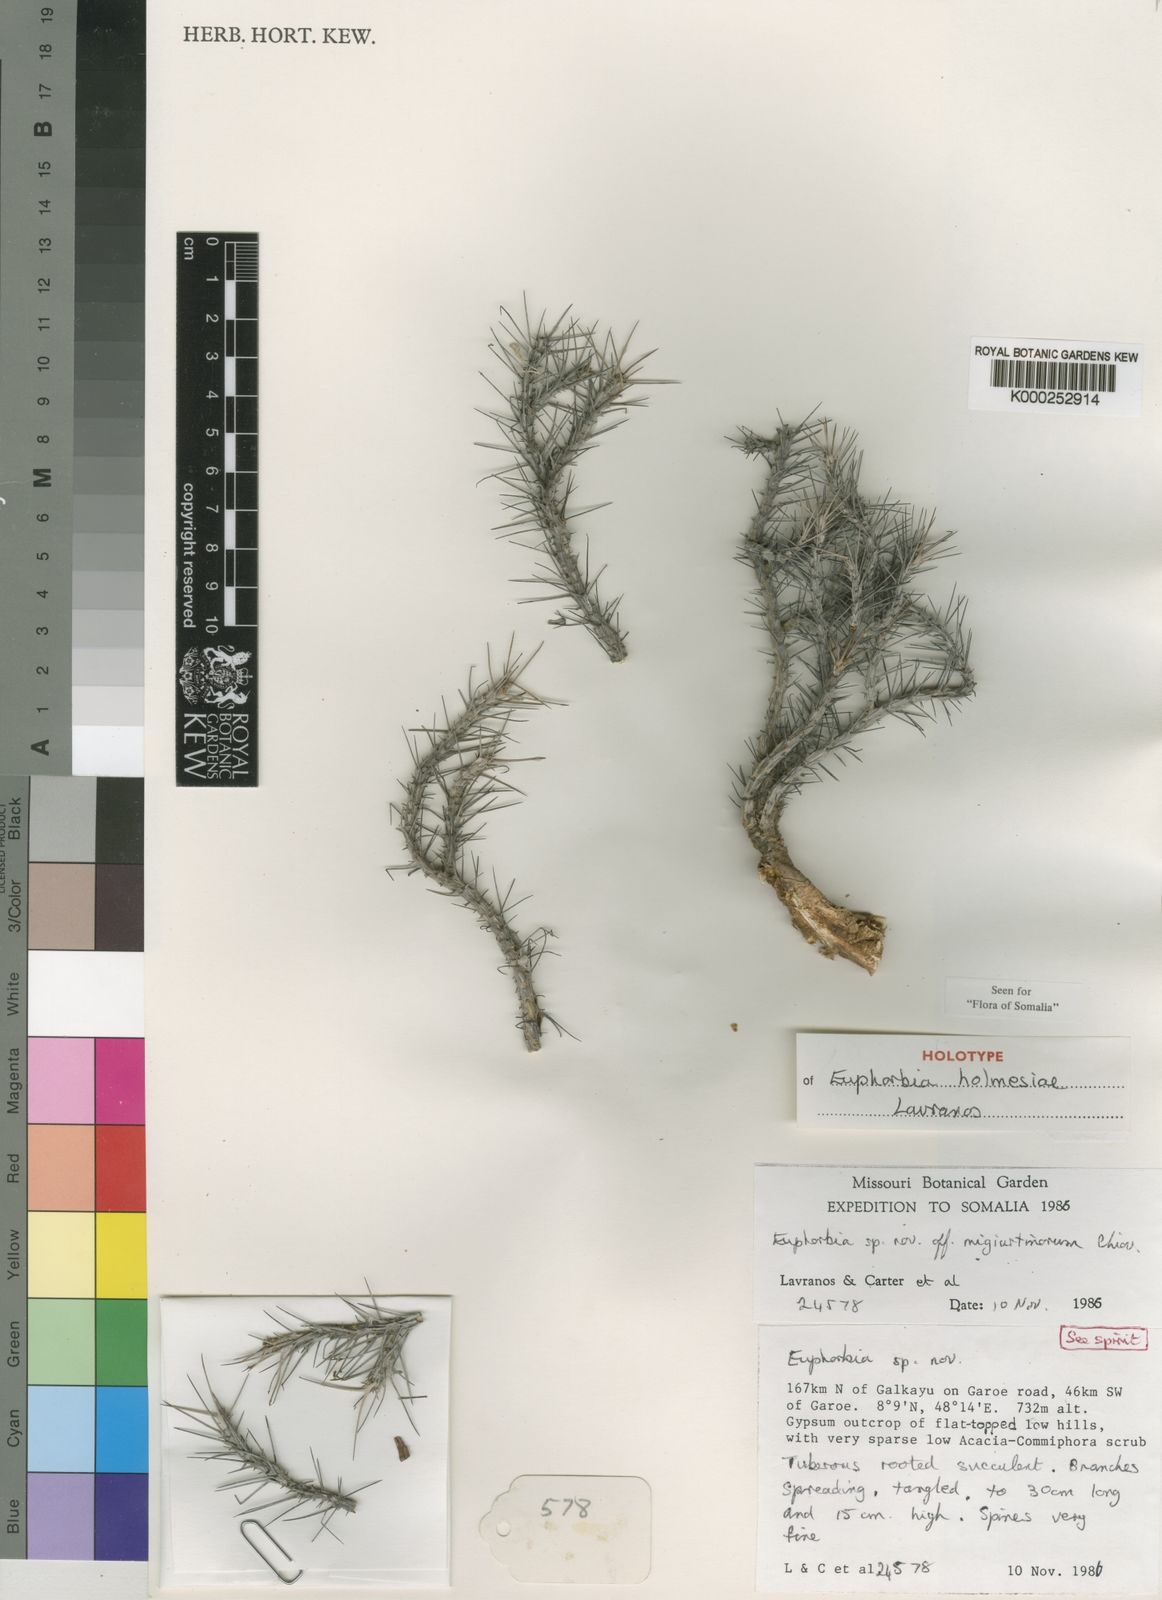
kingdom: Plantae
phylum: Tracheophyta
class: Magnoliopsida
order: Malpighiales
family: Euphorbiaceae
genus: Euphorbia
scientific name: Euphorbia holmesiae
